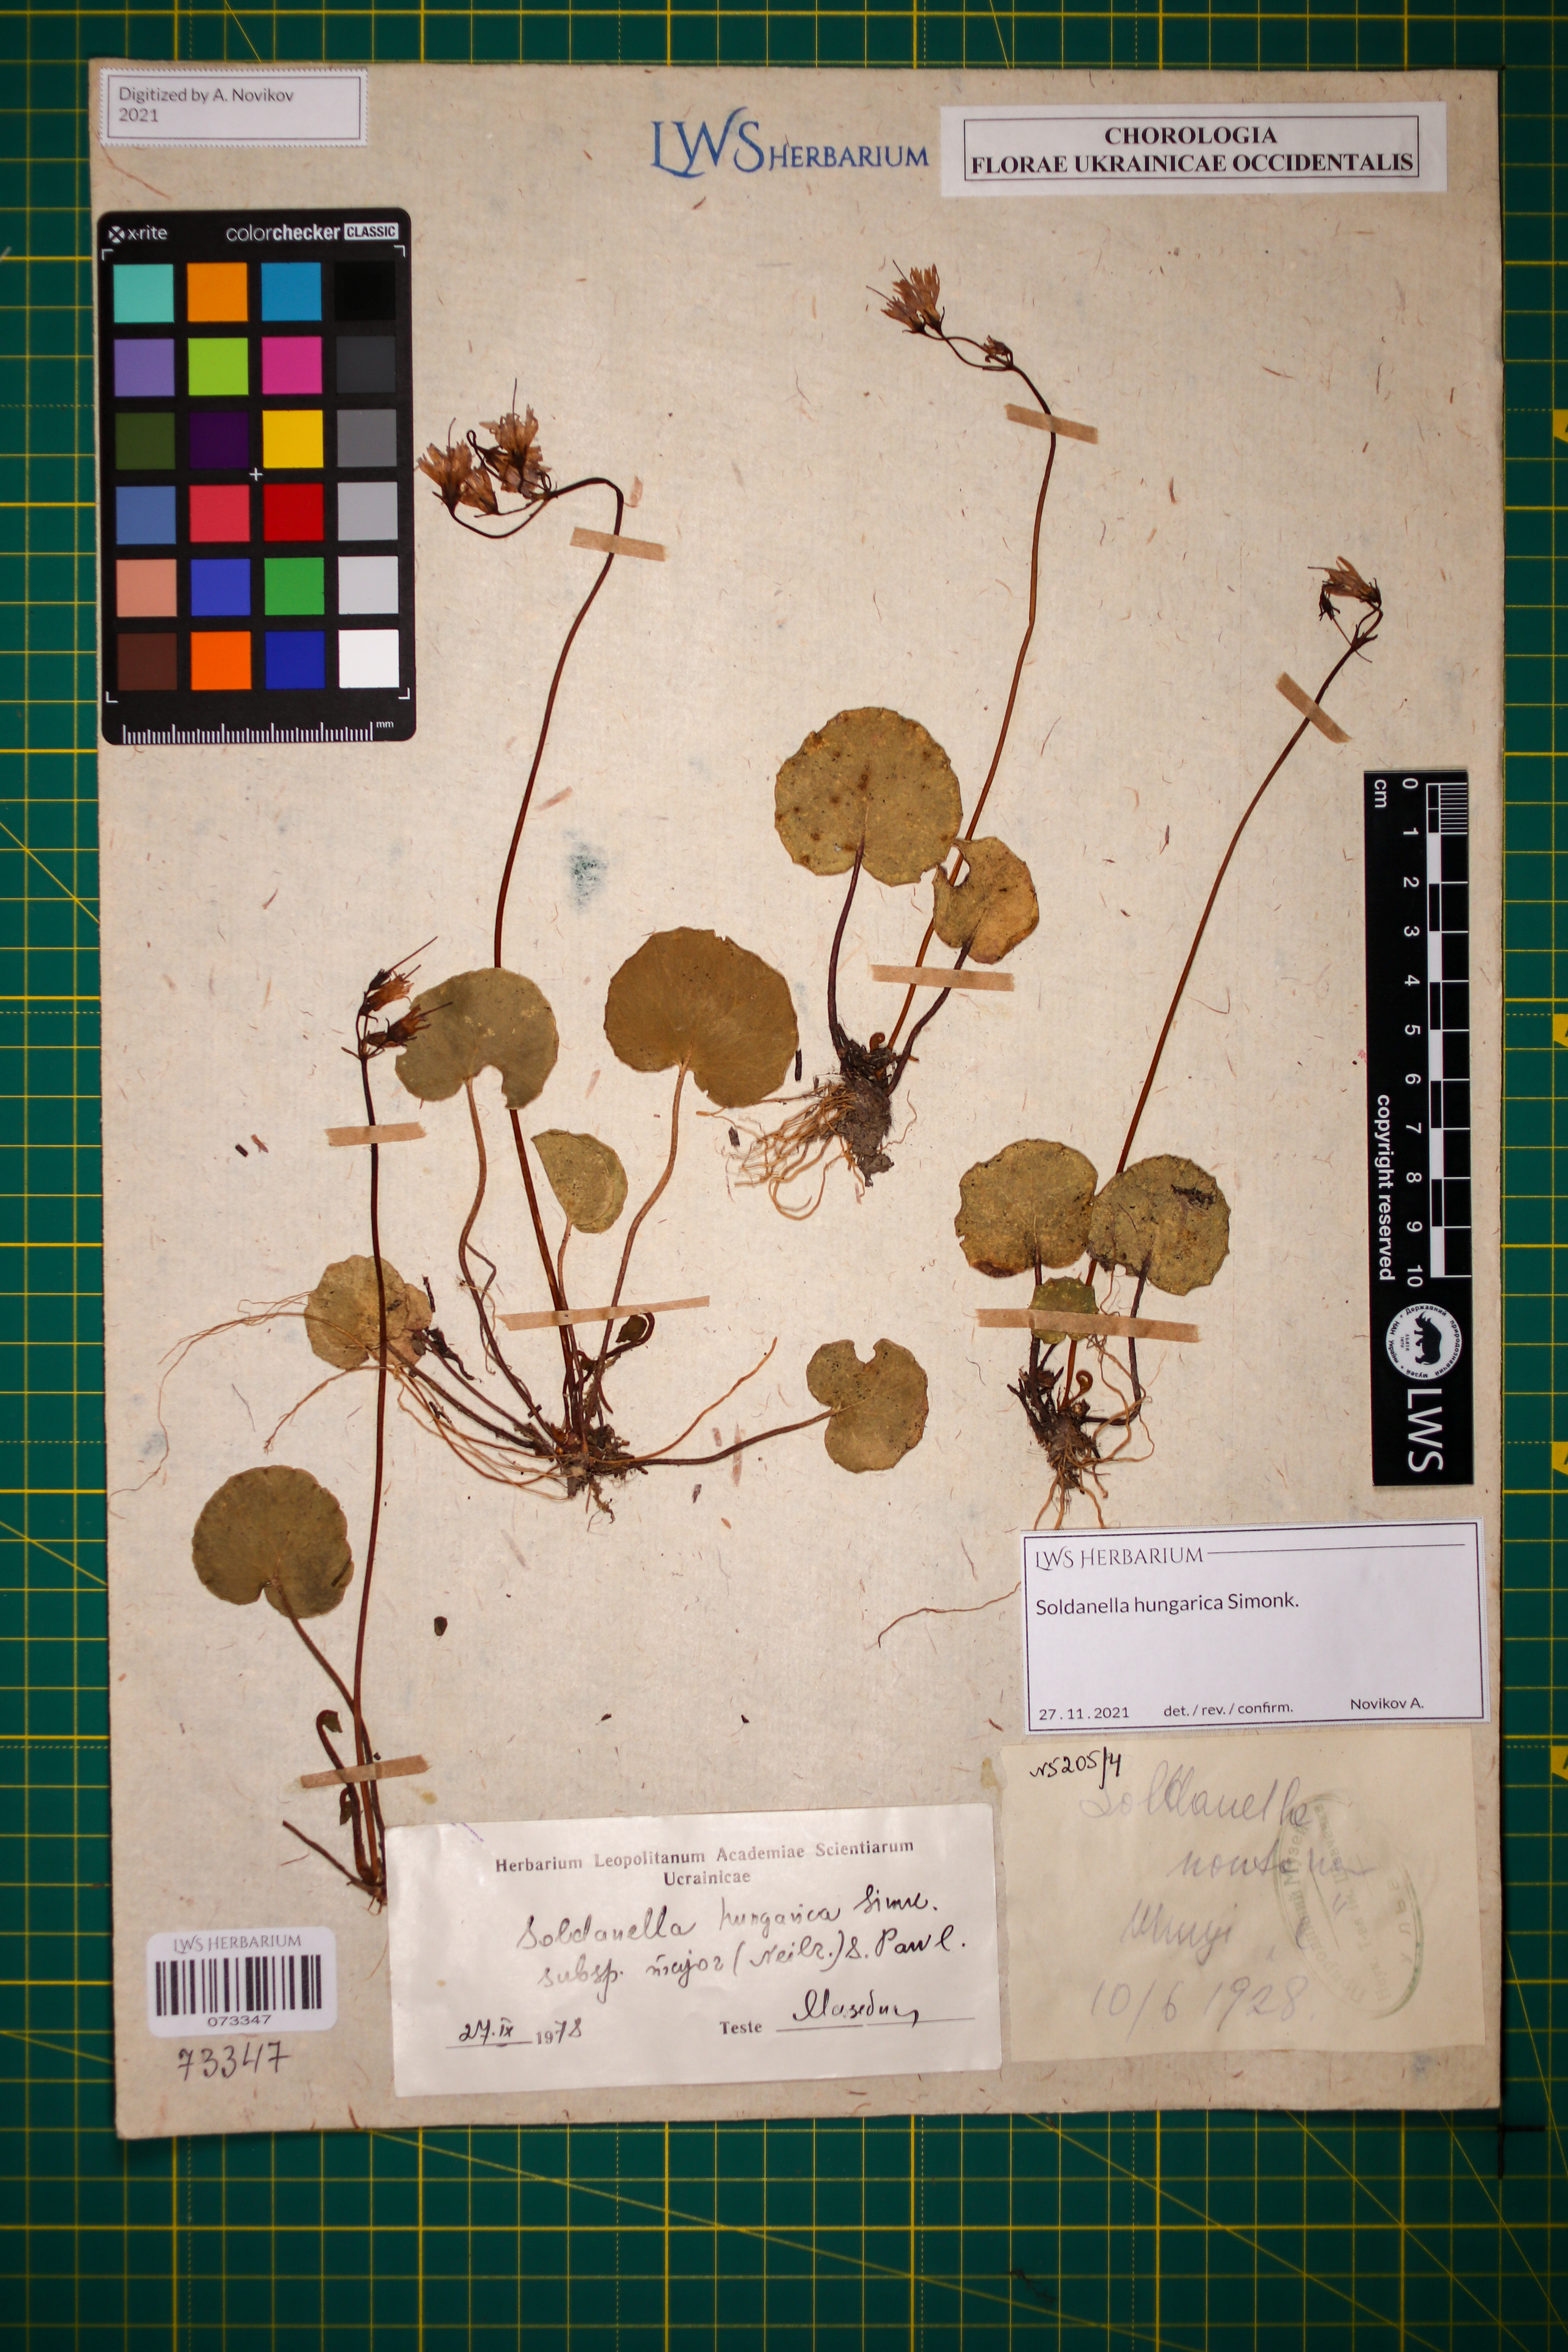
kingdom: Plantae
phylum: Tracheophyta
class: Magnoliopsida
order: Ericales
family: Primulaceae
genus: Soldanella
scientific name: Soldanella hungarica
